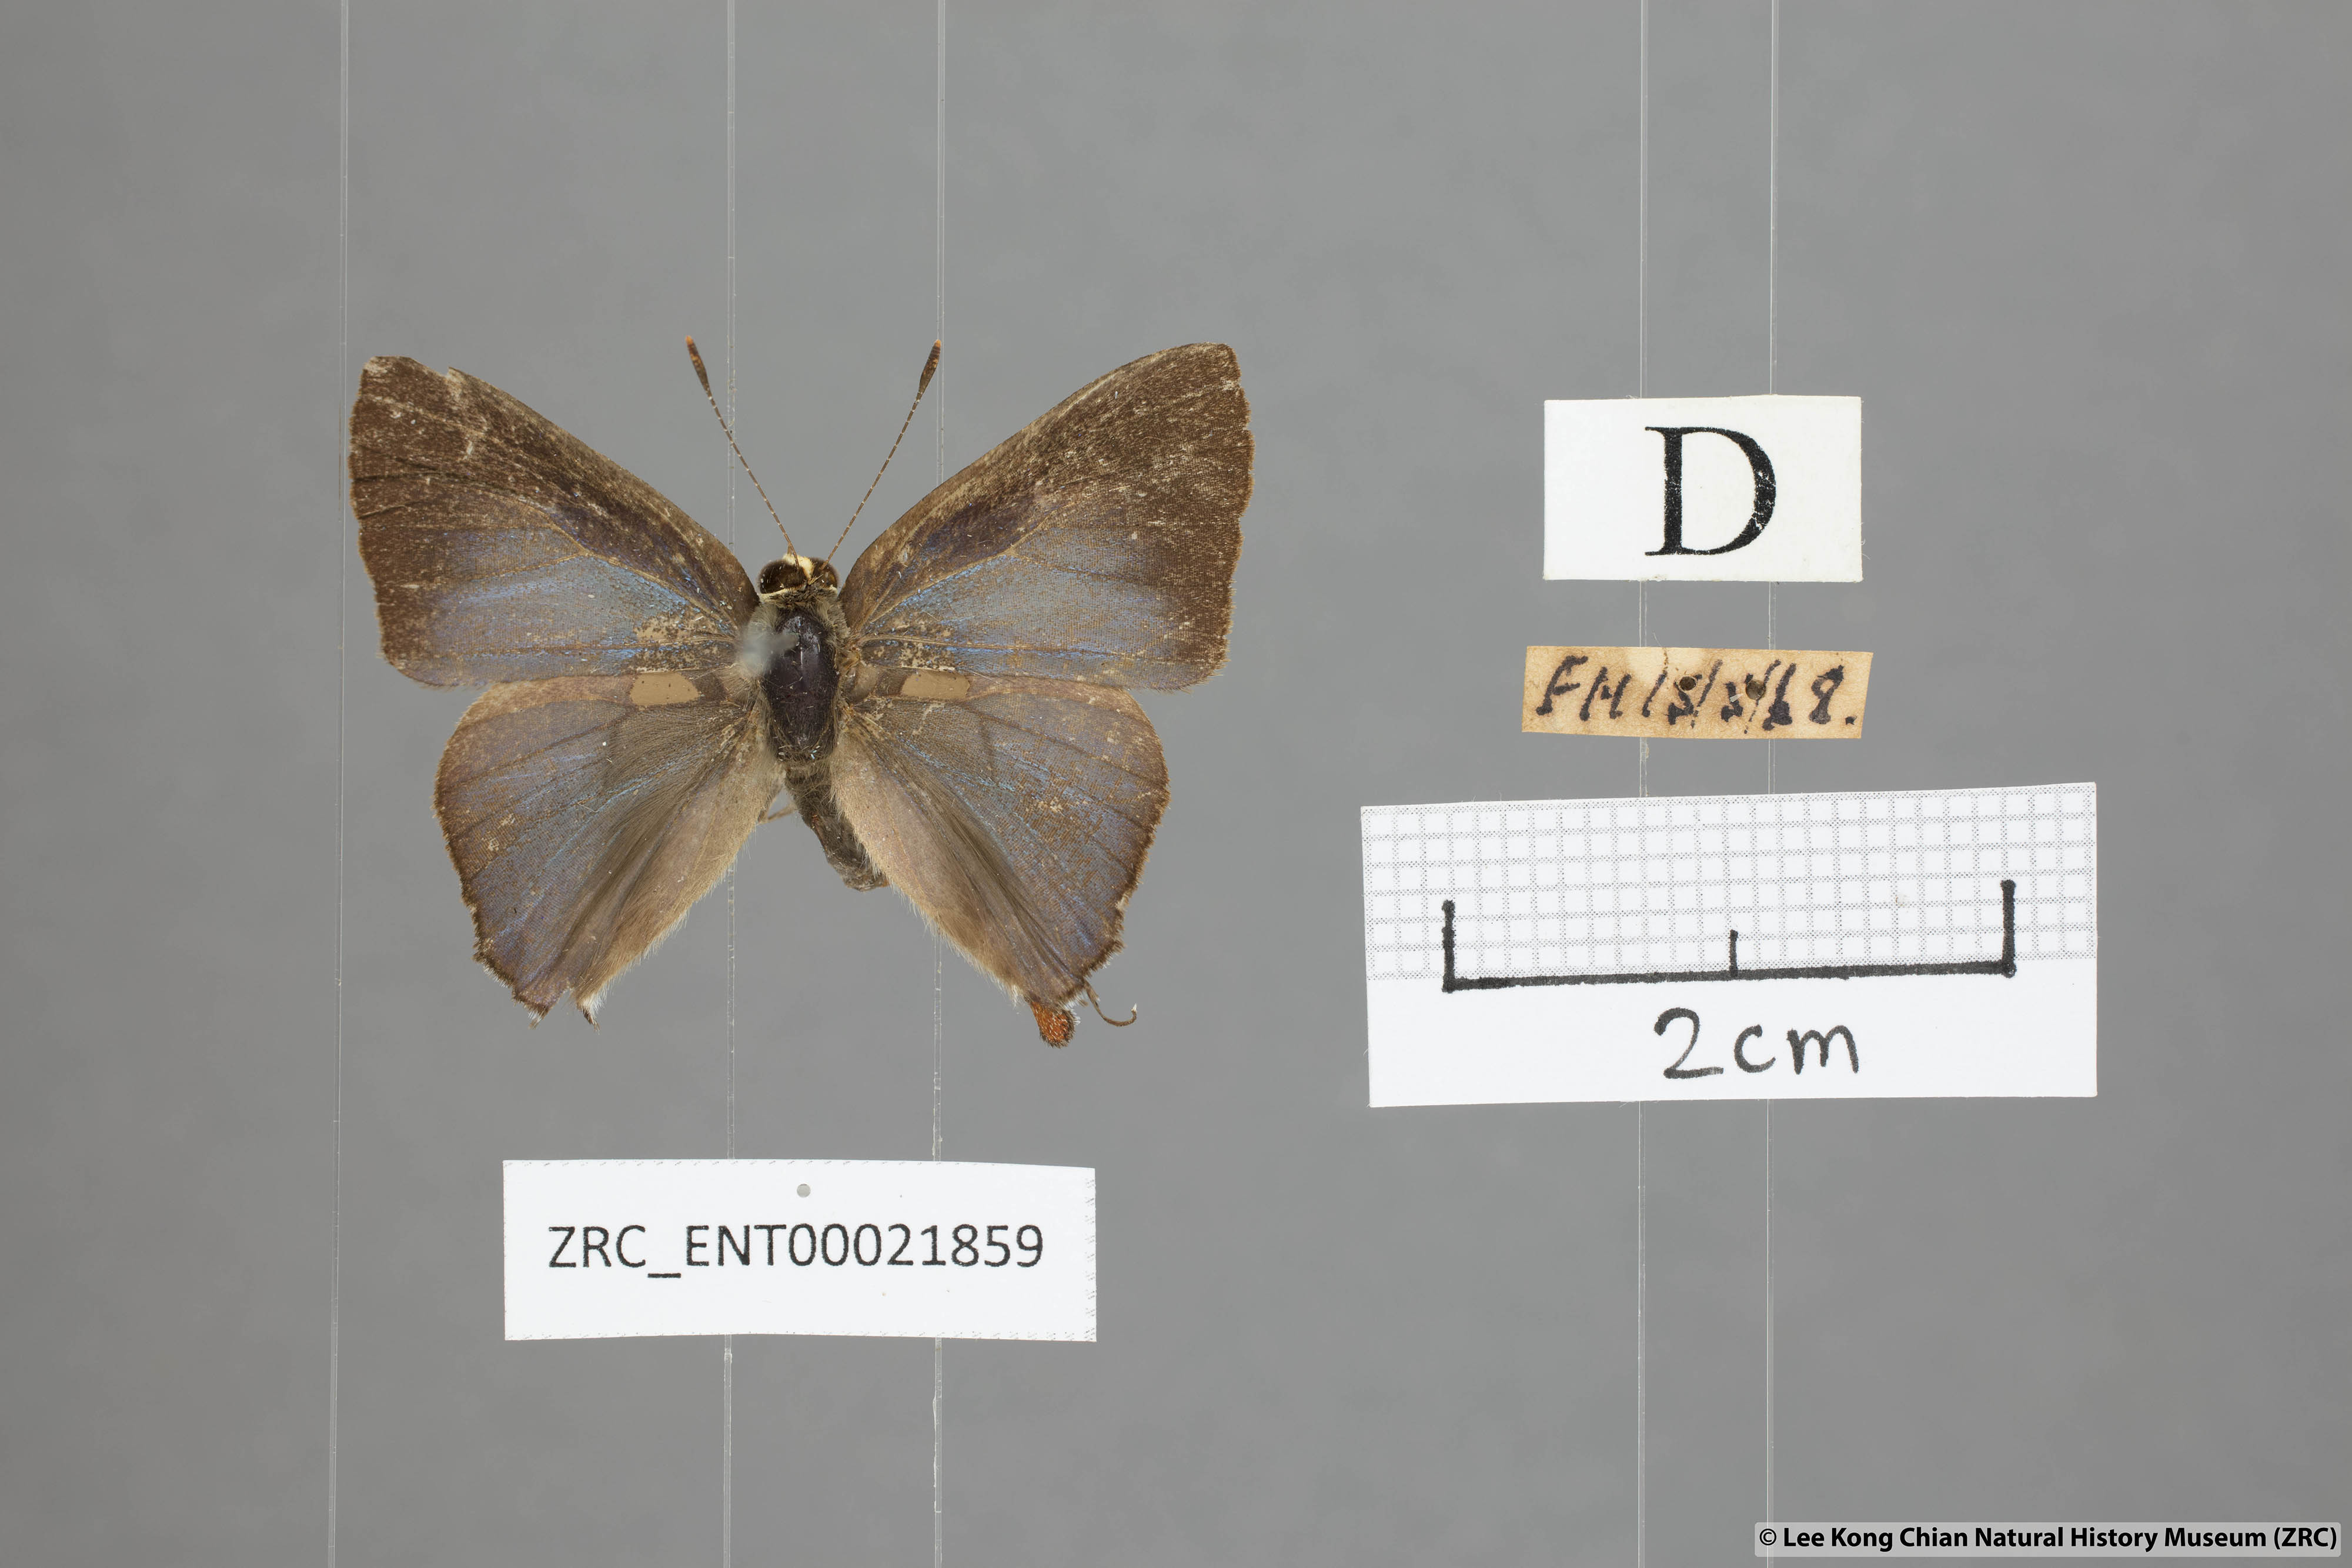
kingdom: Animalia
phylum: Arthropoda
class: Insecta
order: Lepidoptera
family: Lycaenidae
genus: Rapala
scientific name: Rapala nissa
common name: Common flash
